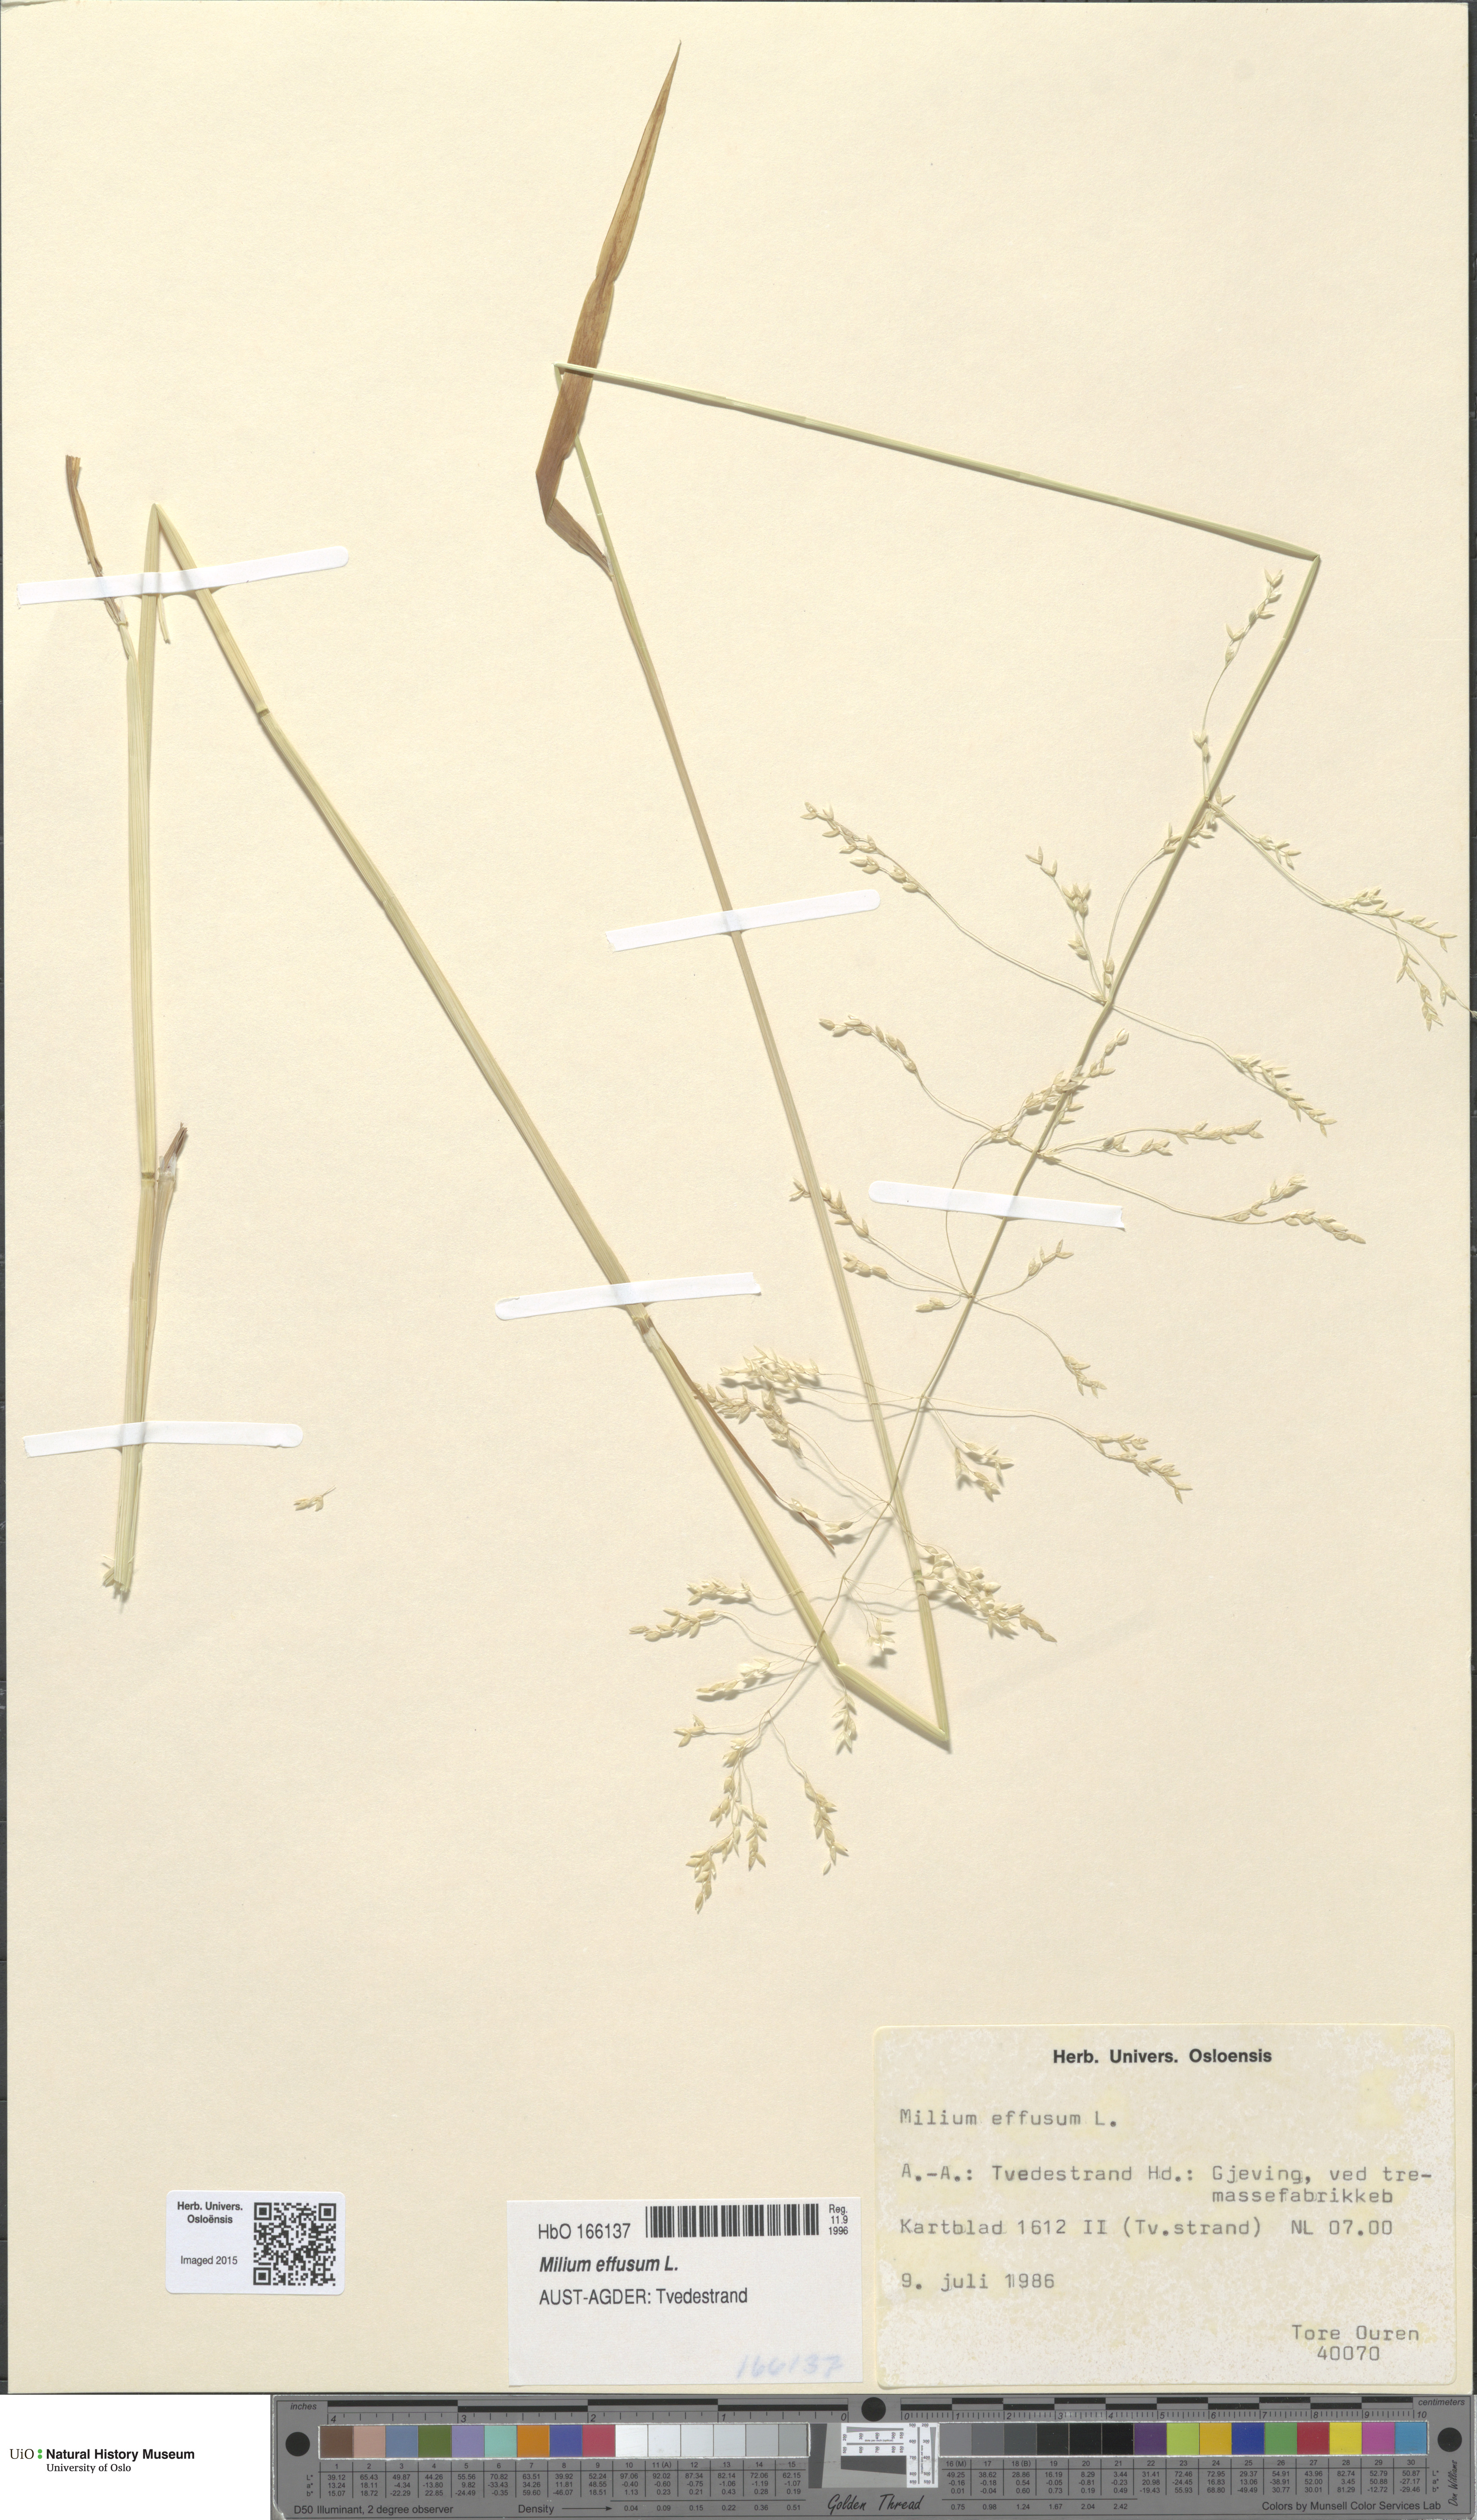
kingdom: Plantae
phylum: Tracheophyta
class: Liliopsida
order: Poales
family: Poaceae
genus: Milium
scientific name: Milium effusum
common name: Wood millet
